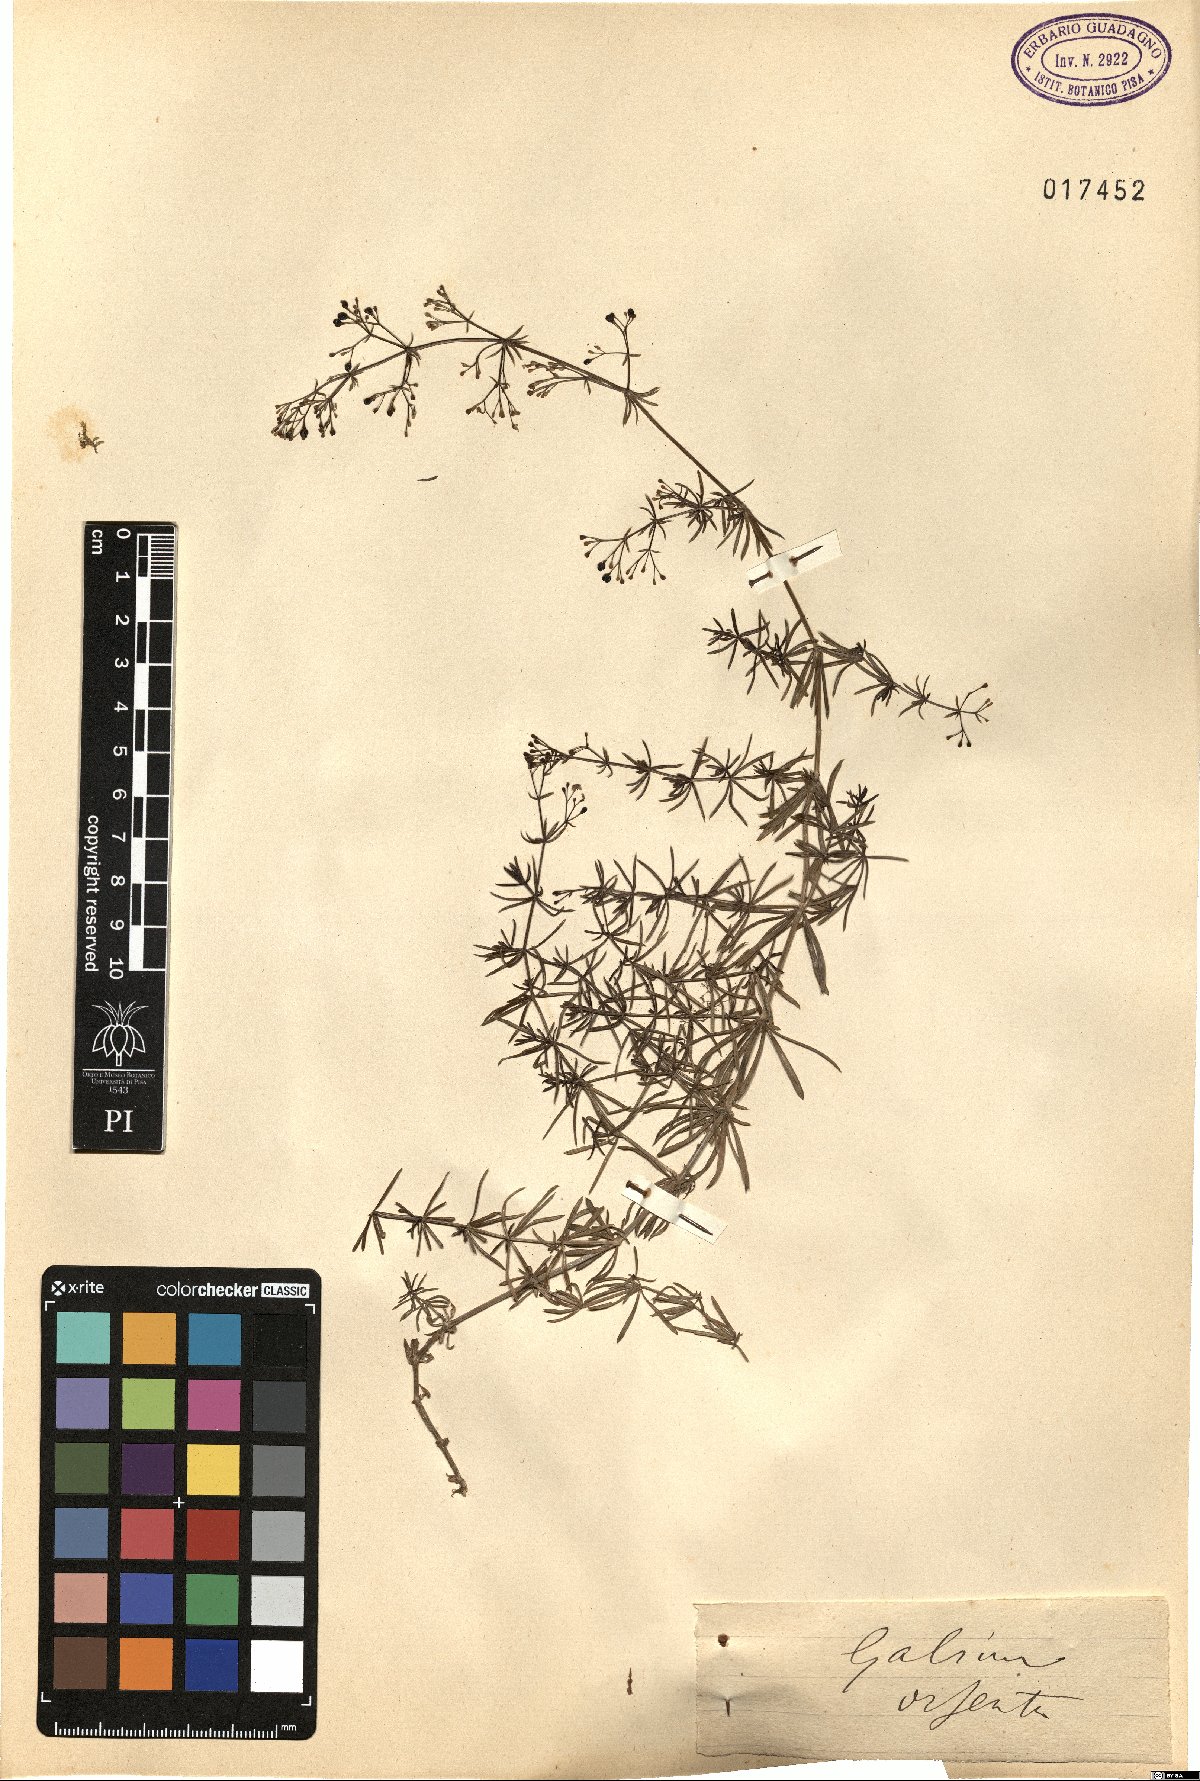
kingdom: Plantae
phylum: Tracheophyta
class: Magnoliopsida
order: Gentianales
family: Rubiaceae
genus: Galium
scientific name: Galium
